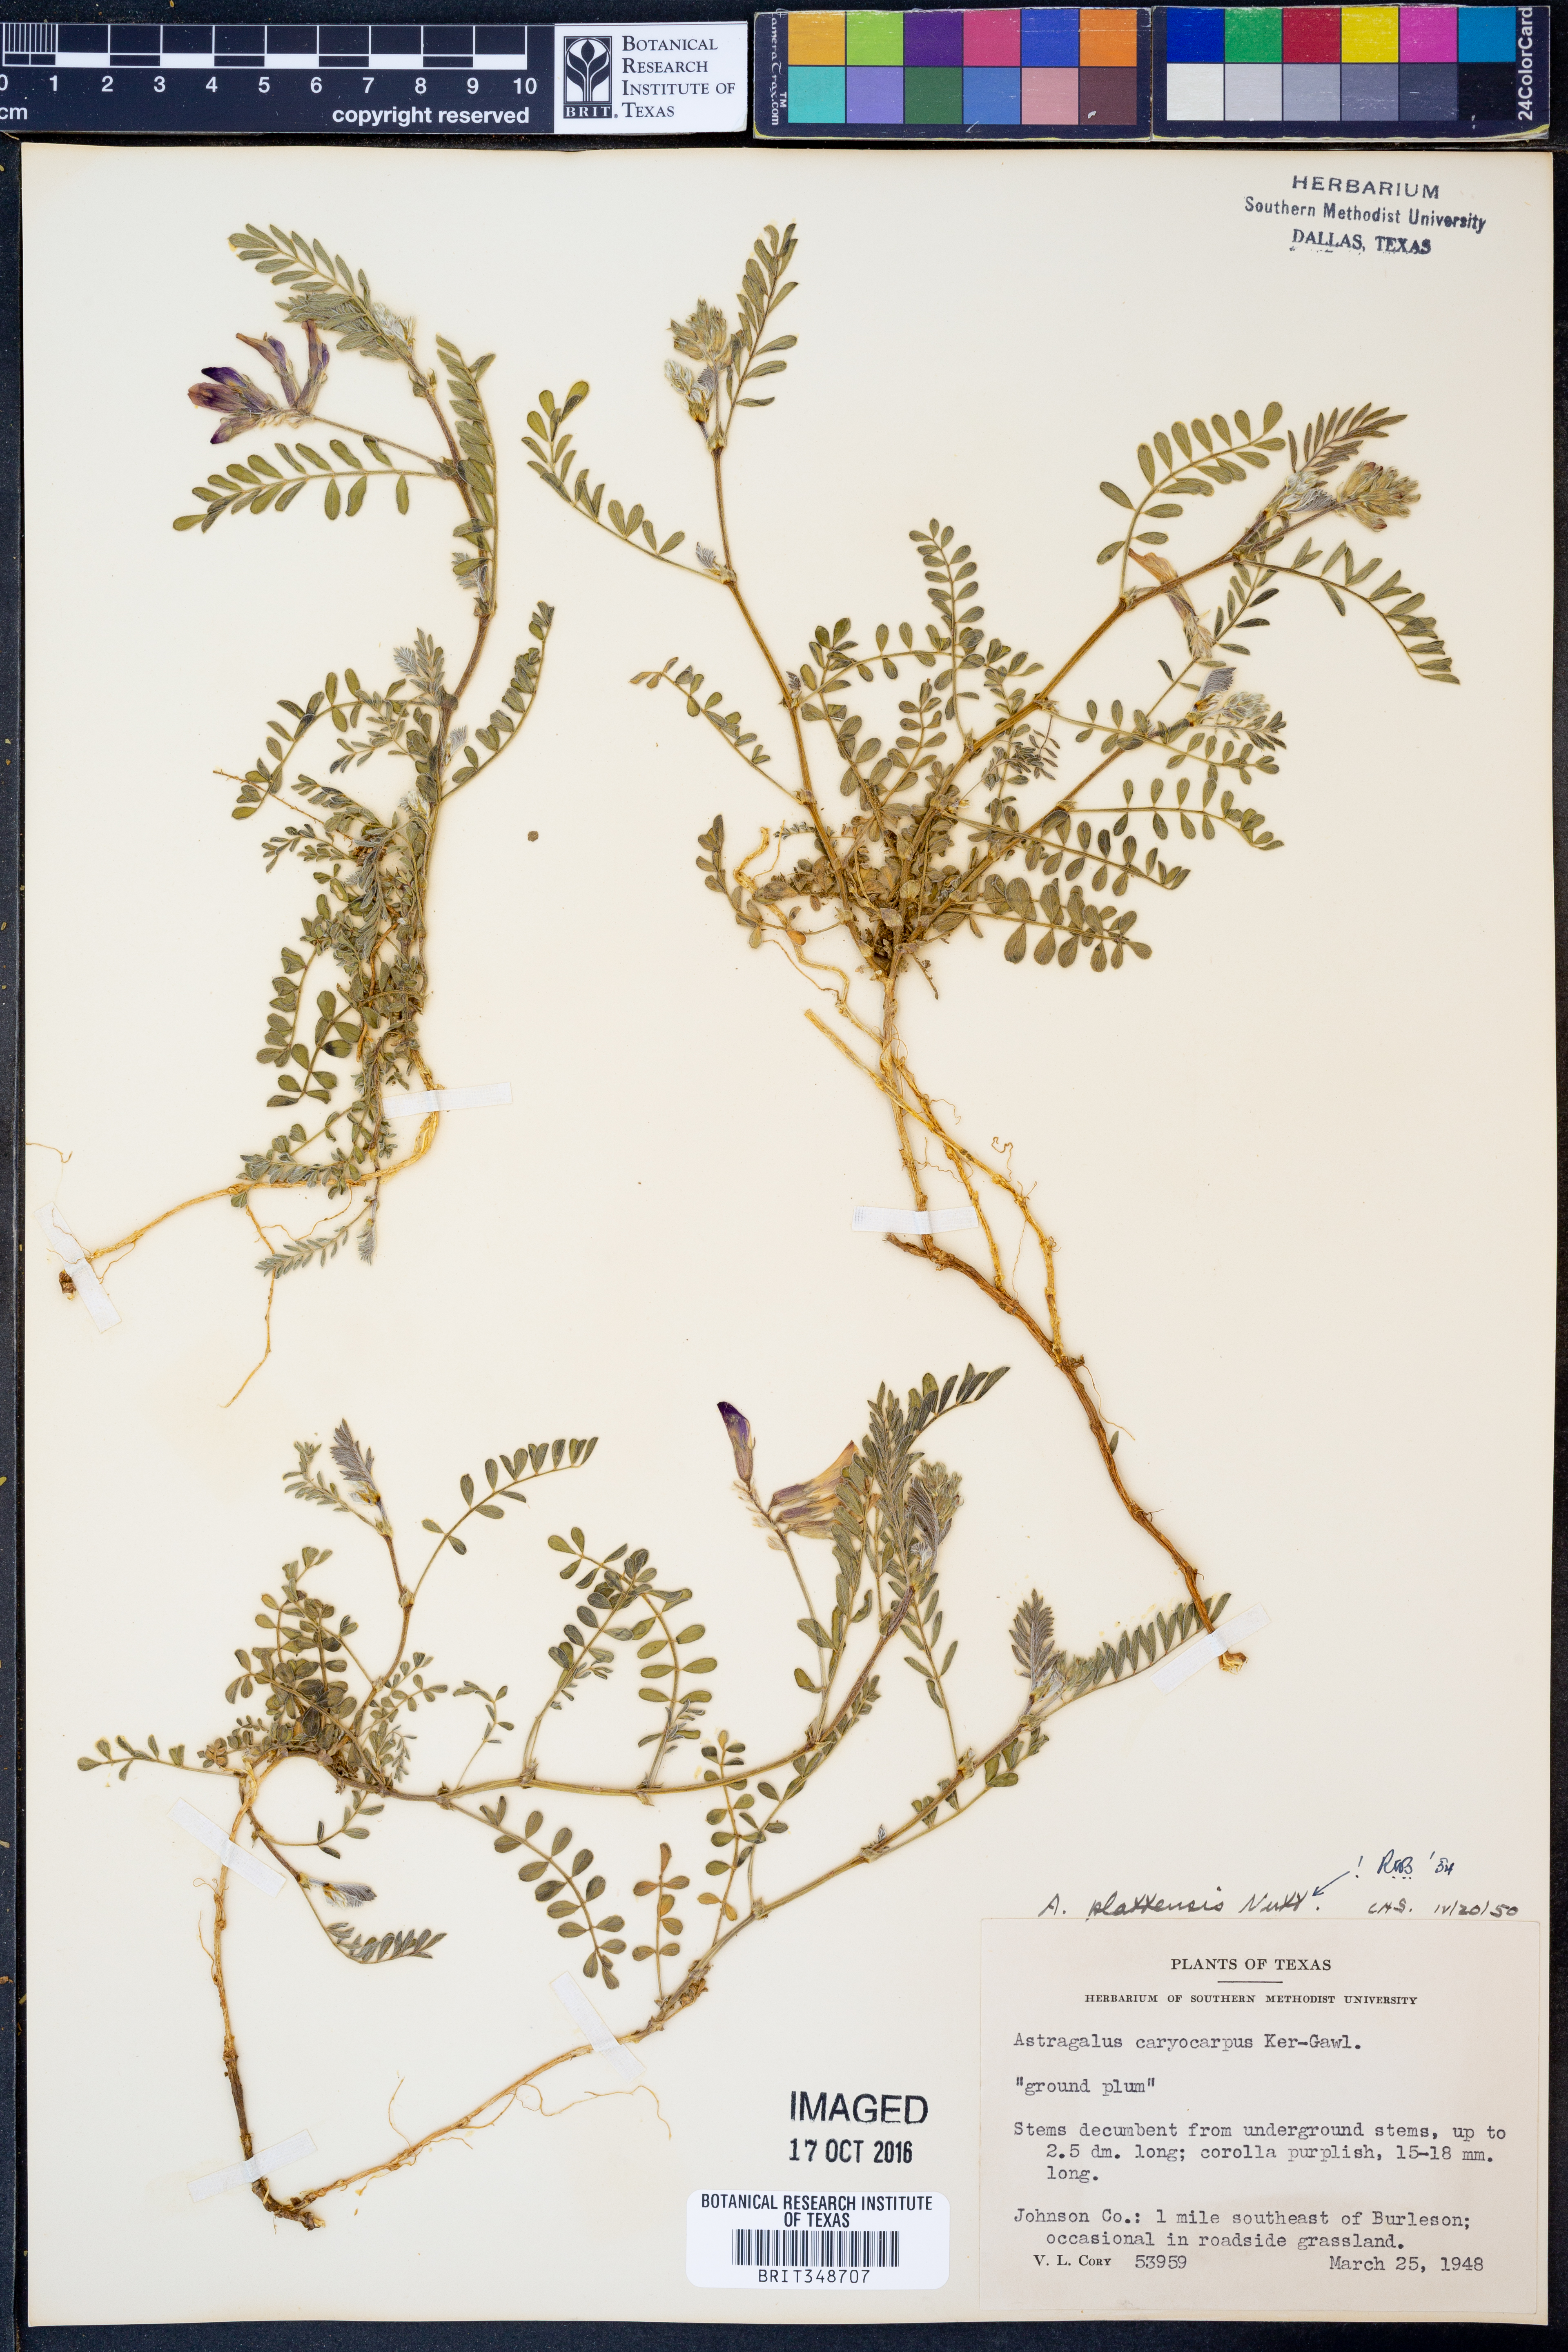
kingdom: Plantae
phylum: Tracheophyta
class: Magnoliopsida
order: Fabales
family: Fabaceae
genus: Astragalus
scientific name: Astragalus plattensis
